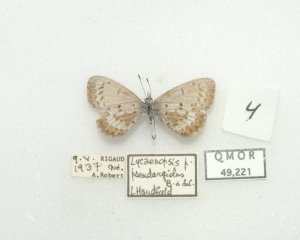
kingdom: Animalia
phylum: Arthropoda
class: Insecta
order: Lepidoptera
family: Lycaenidae
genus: Celastrina
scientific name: Celastrina lucia
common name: Northern Spring Azure
